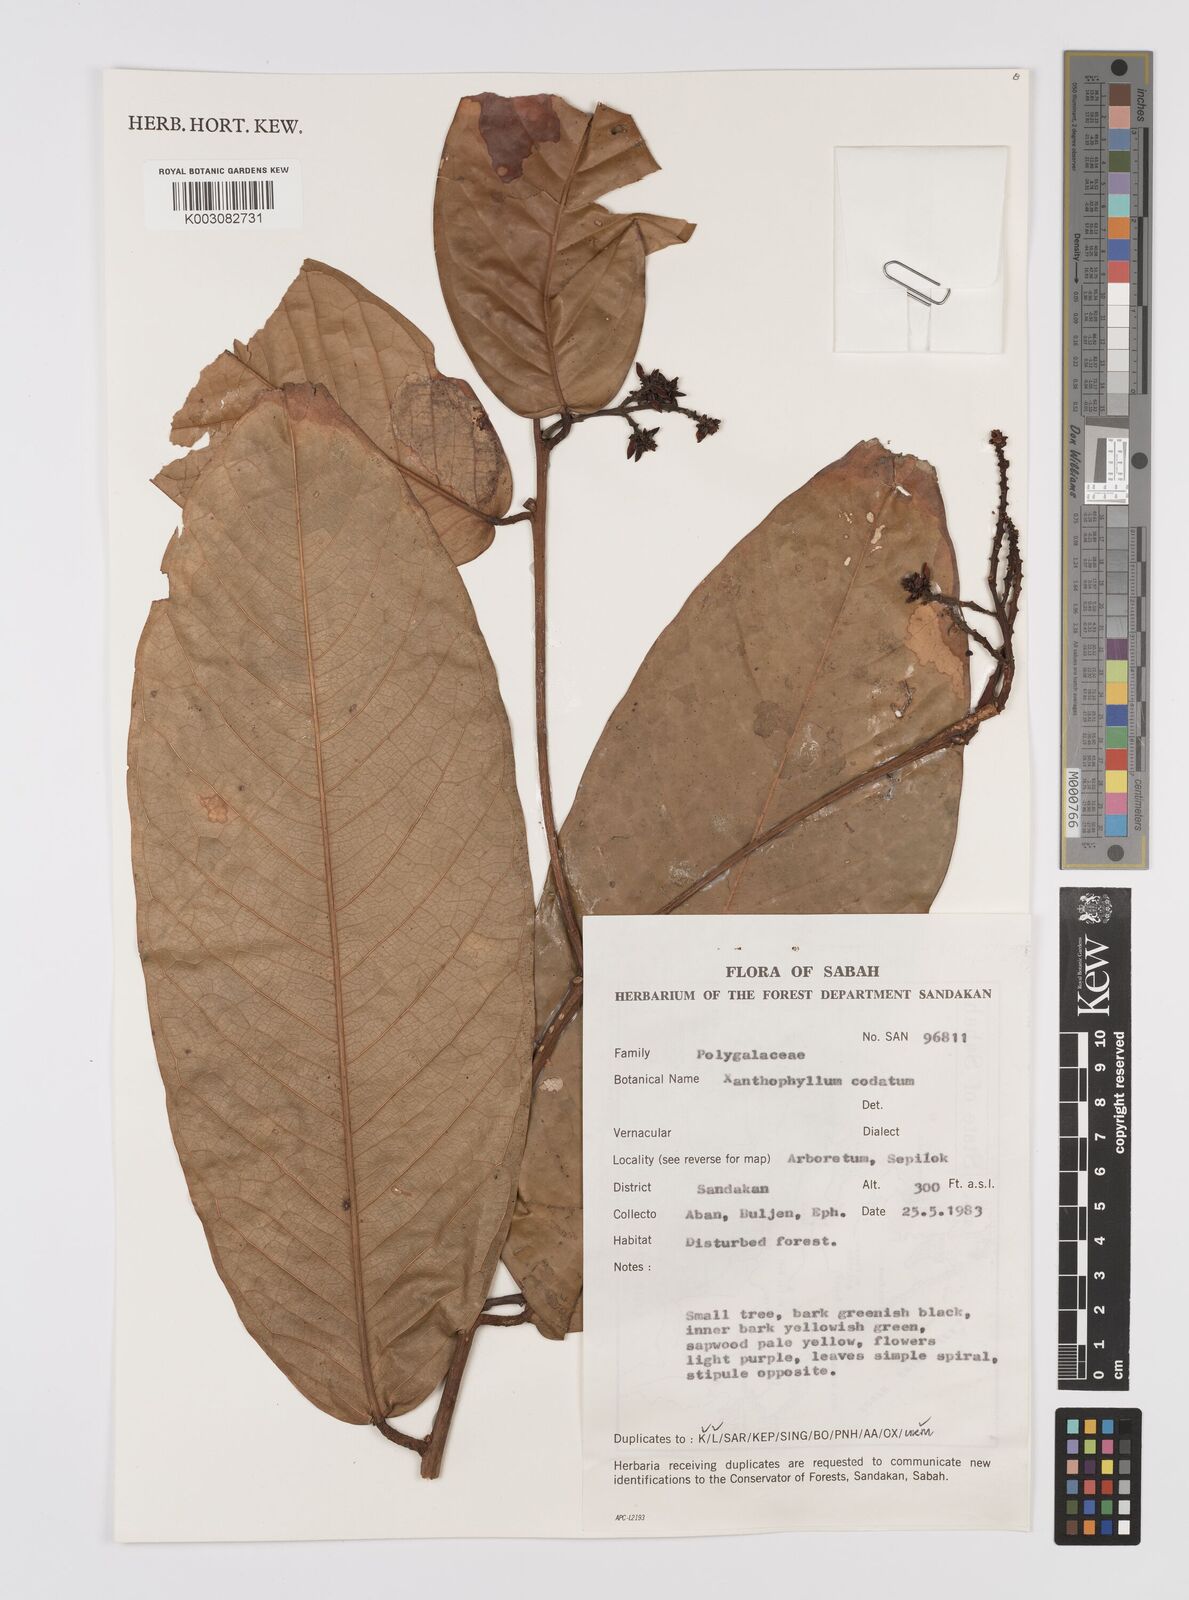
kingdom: Plantae
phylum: Tracheophyta
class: Magnoliopsida
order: Fabales
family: Polygalaceae
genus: Xanthophyllum
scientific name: Xanthophyllum adenotus
